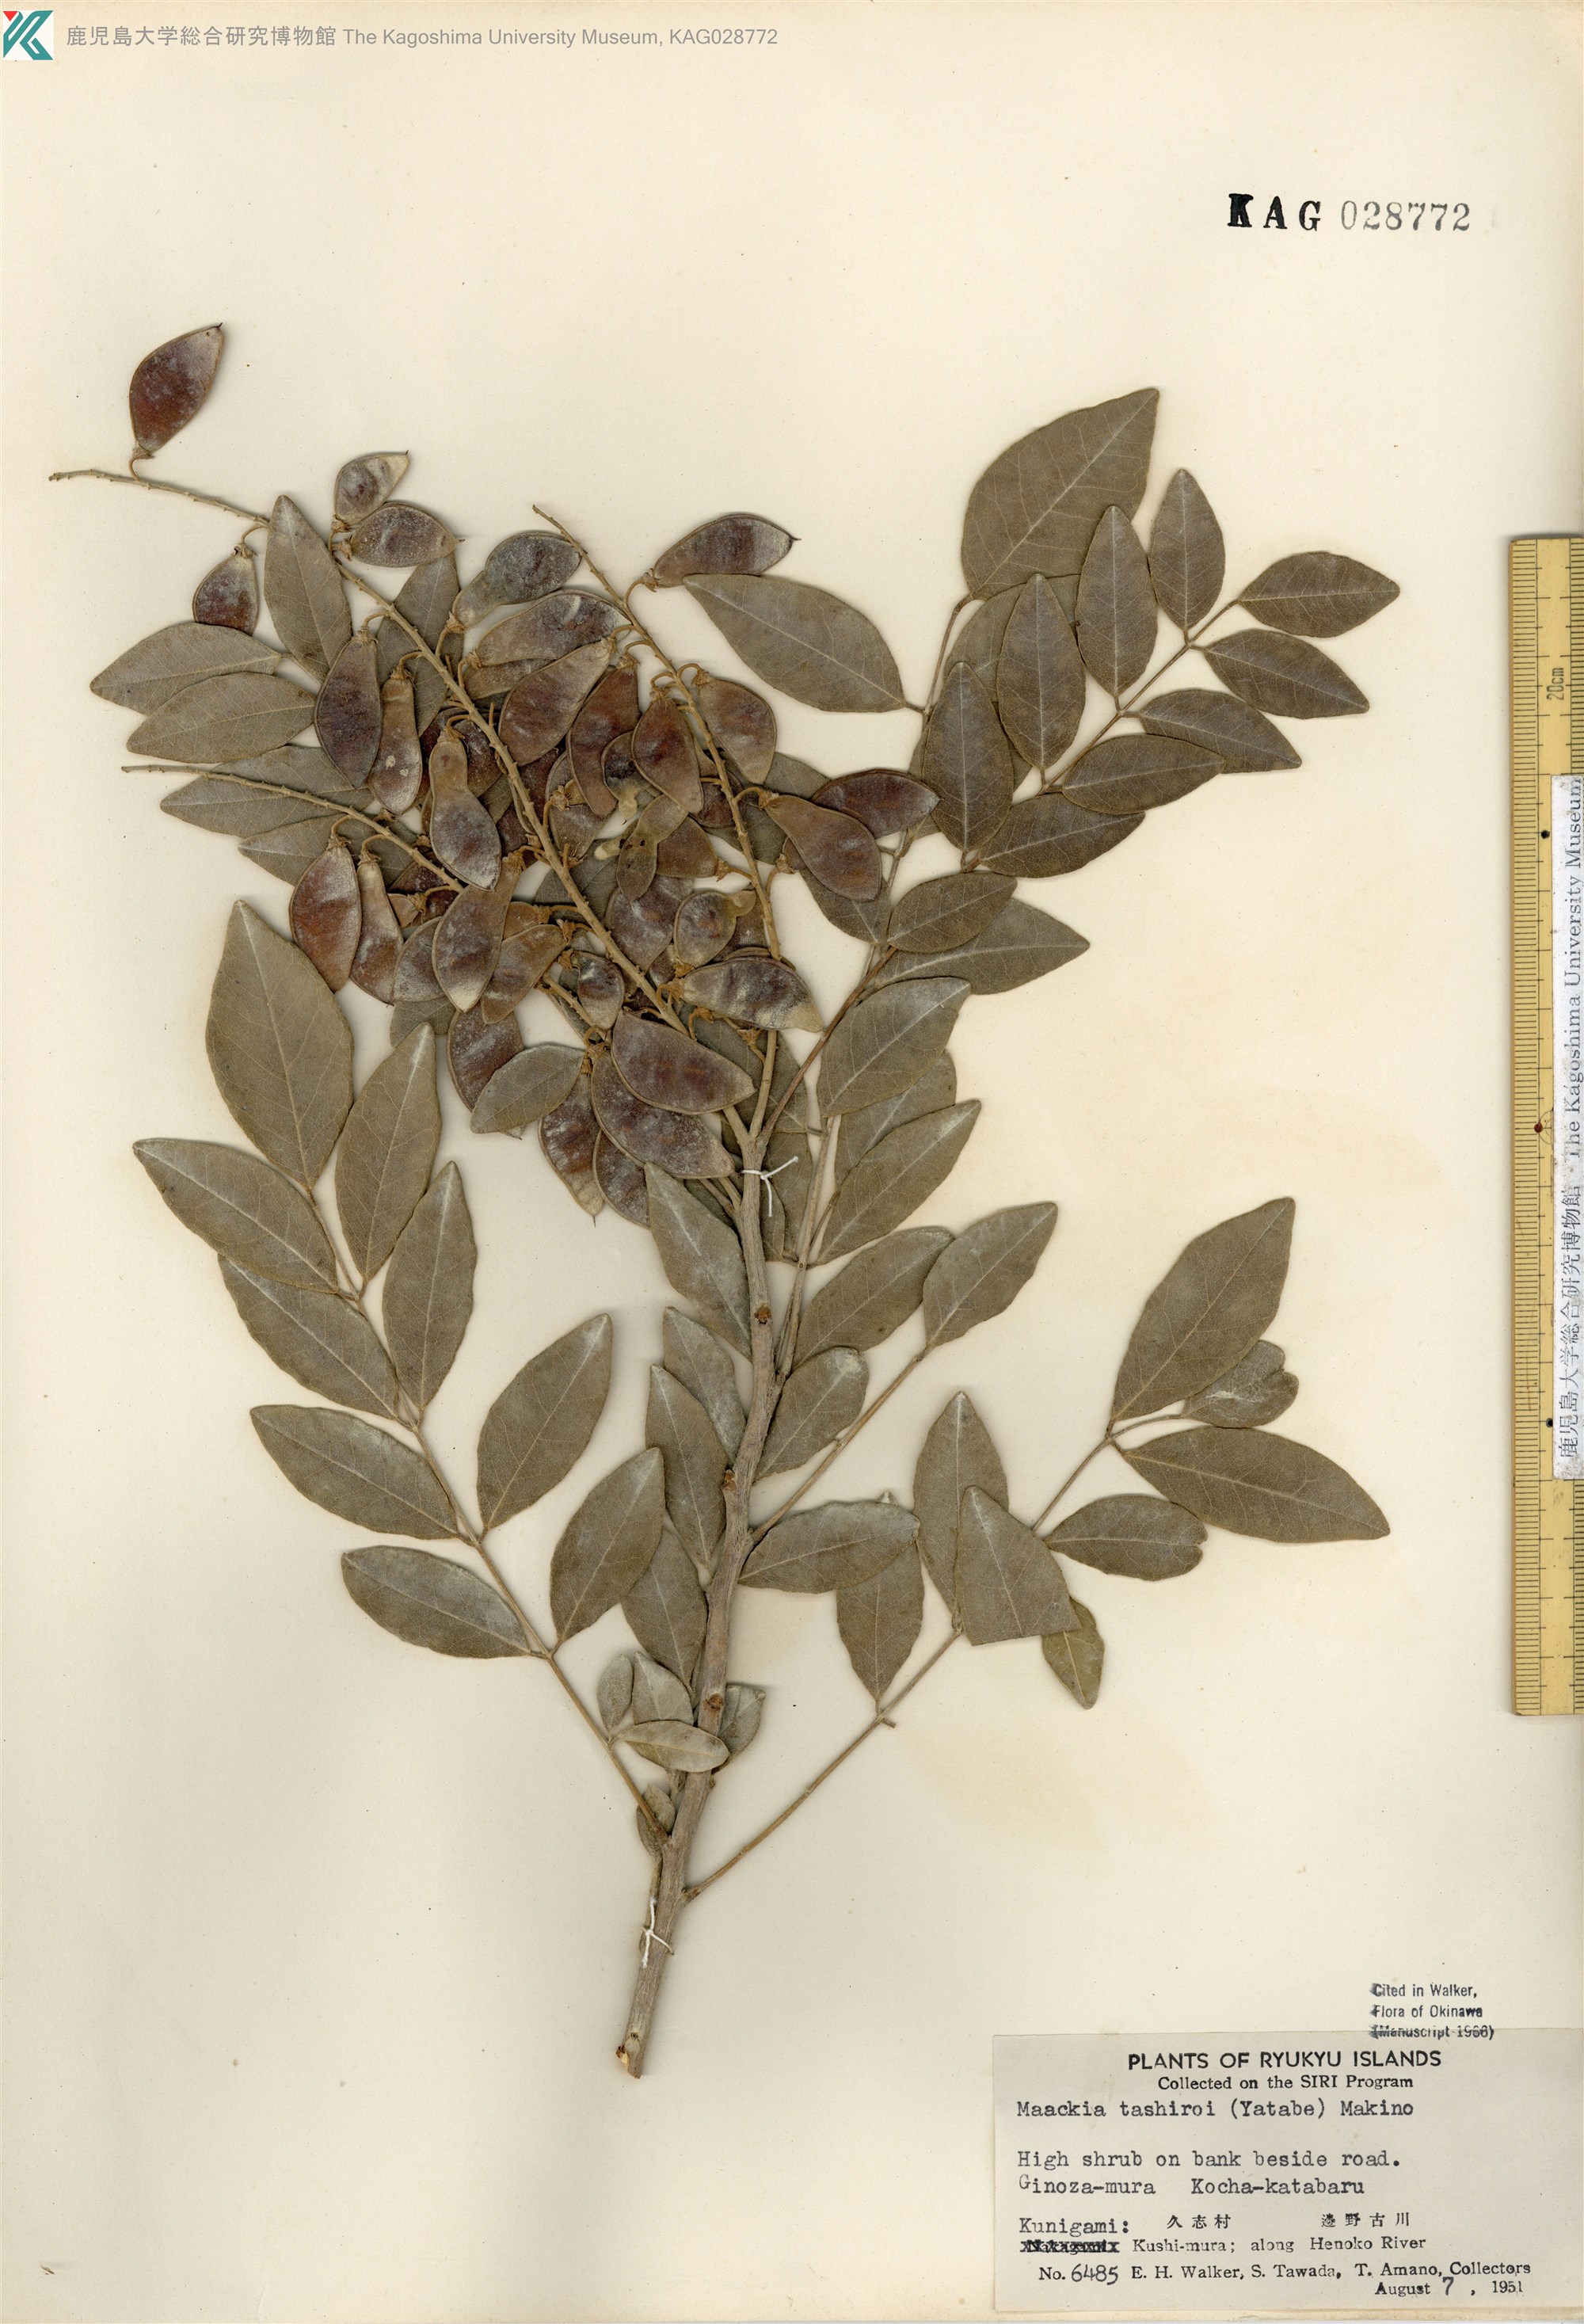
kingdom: Plantae
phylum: Tracheophyta
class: Magnoliopsida
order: Fabales
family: Fabaceae
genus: Maackia
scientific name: Maackia tashiroi
